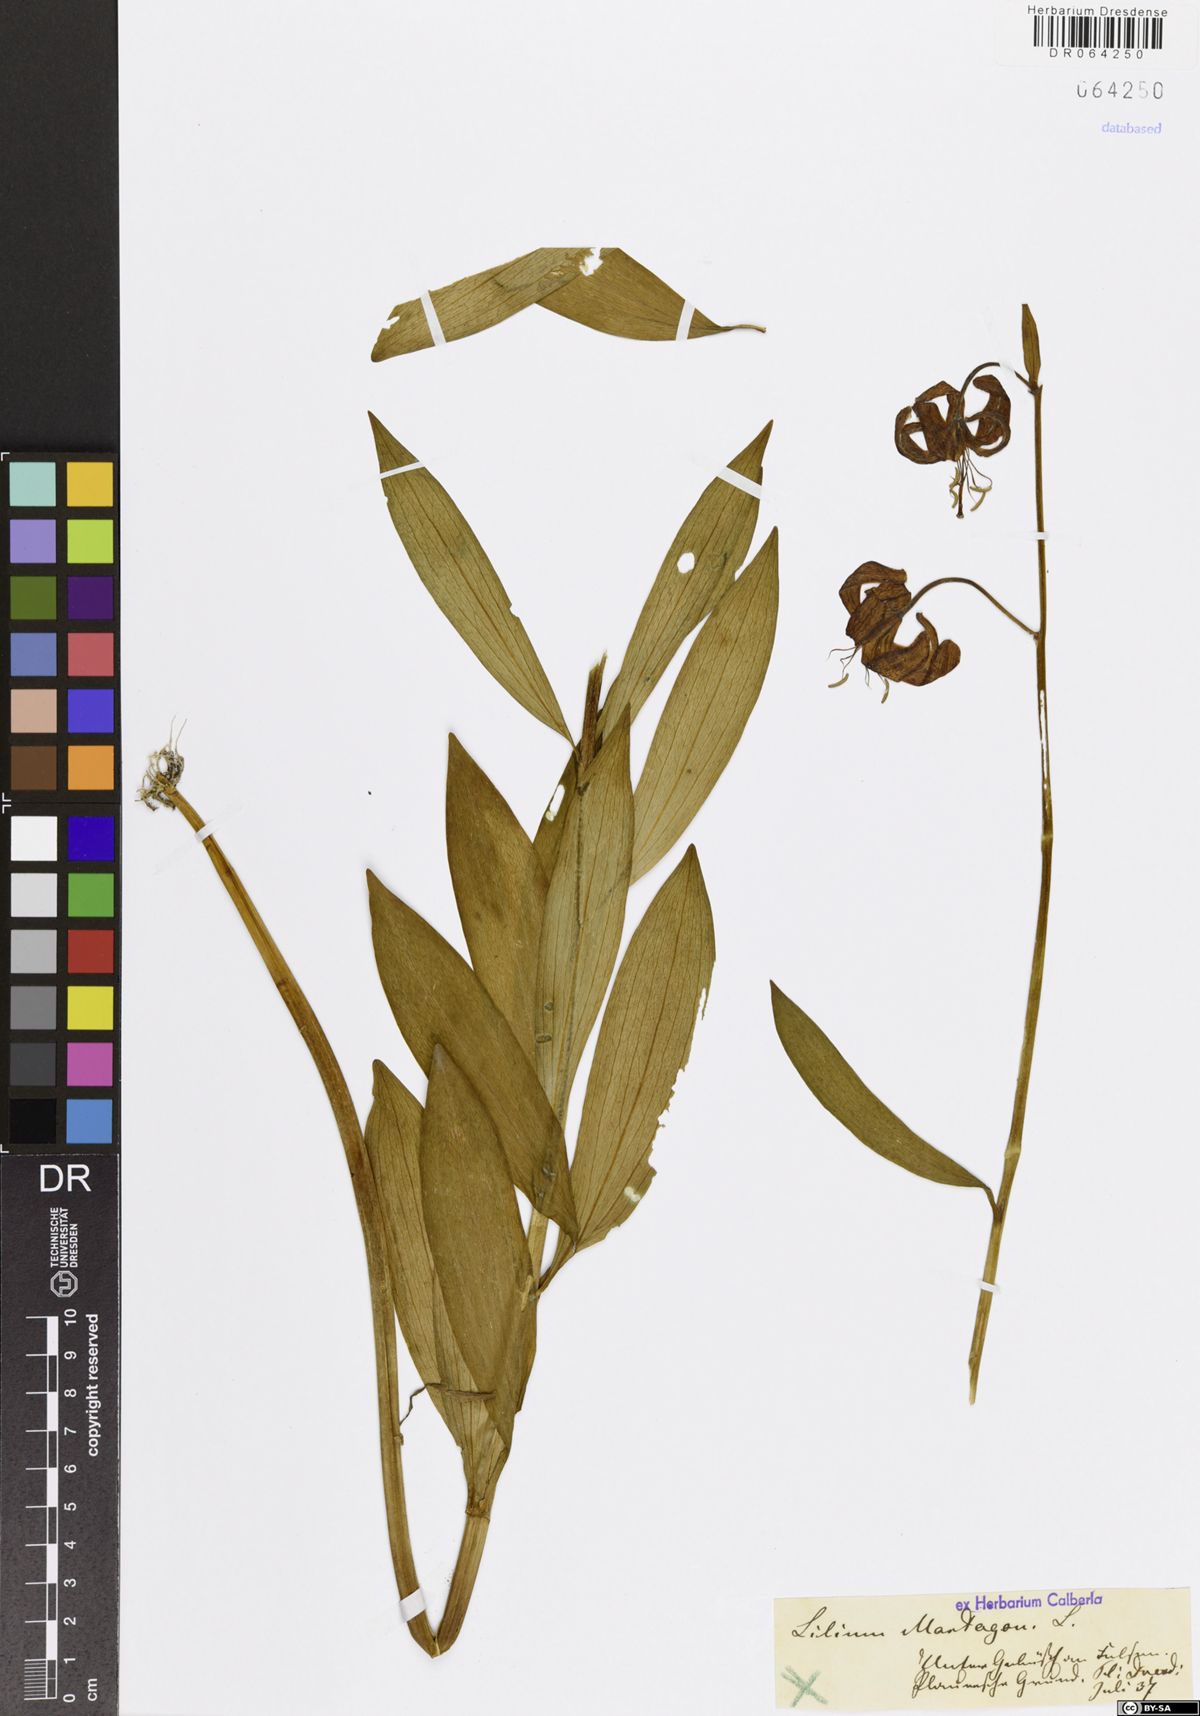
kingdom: Plantae
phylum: Tracheophyta
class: Liliopsida
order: Liliales
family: Liliaceae
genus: Lilium
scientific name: Lilium martagon
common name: Martagon lily
